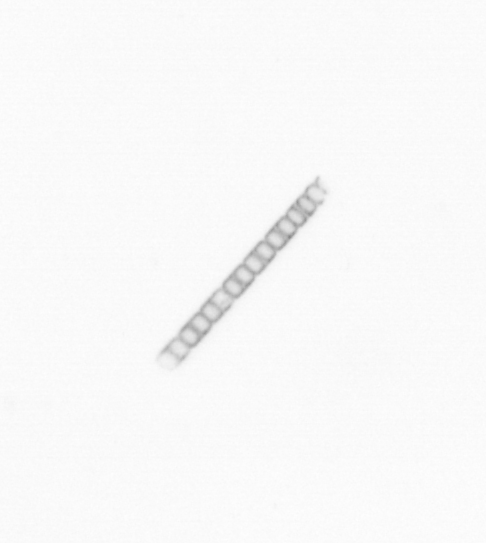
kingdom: Chromista
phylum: Ochrophyta
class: Bacillariophyceae
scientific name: Bacillariophyceae
